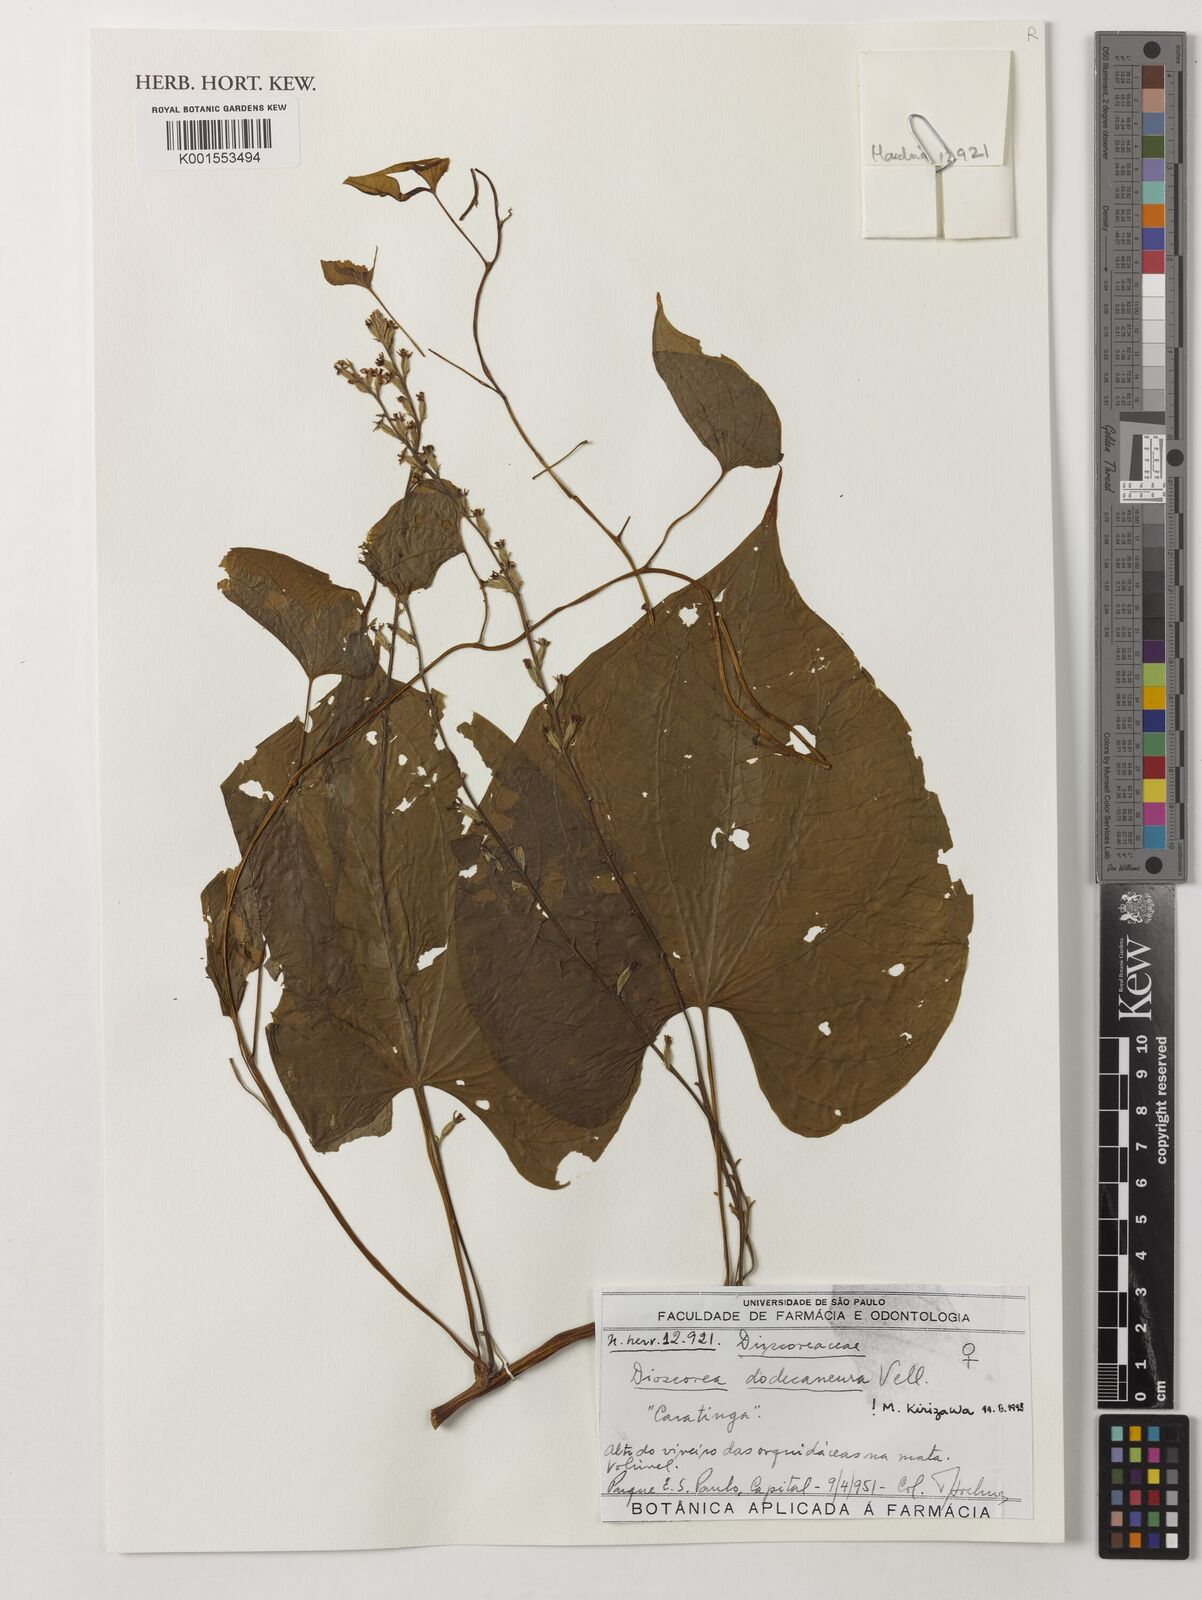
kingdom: Plantae
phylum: Tracheophyta
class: Liliopsida
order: Dioscoreales
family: Dioscoreaceae
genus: Dioscorea
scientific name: Dioscorea dodecaneura
